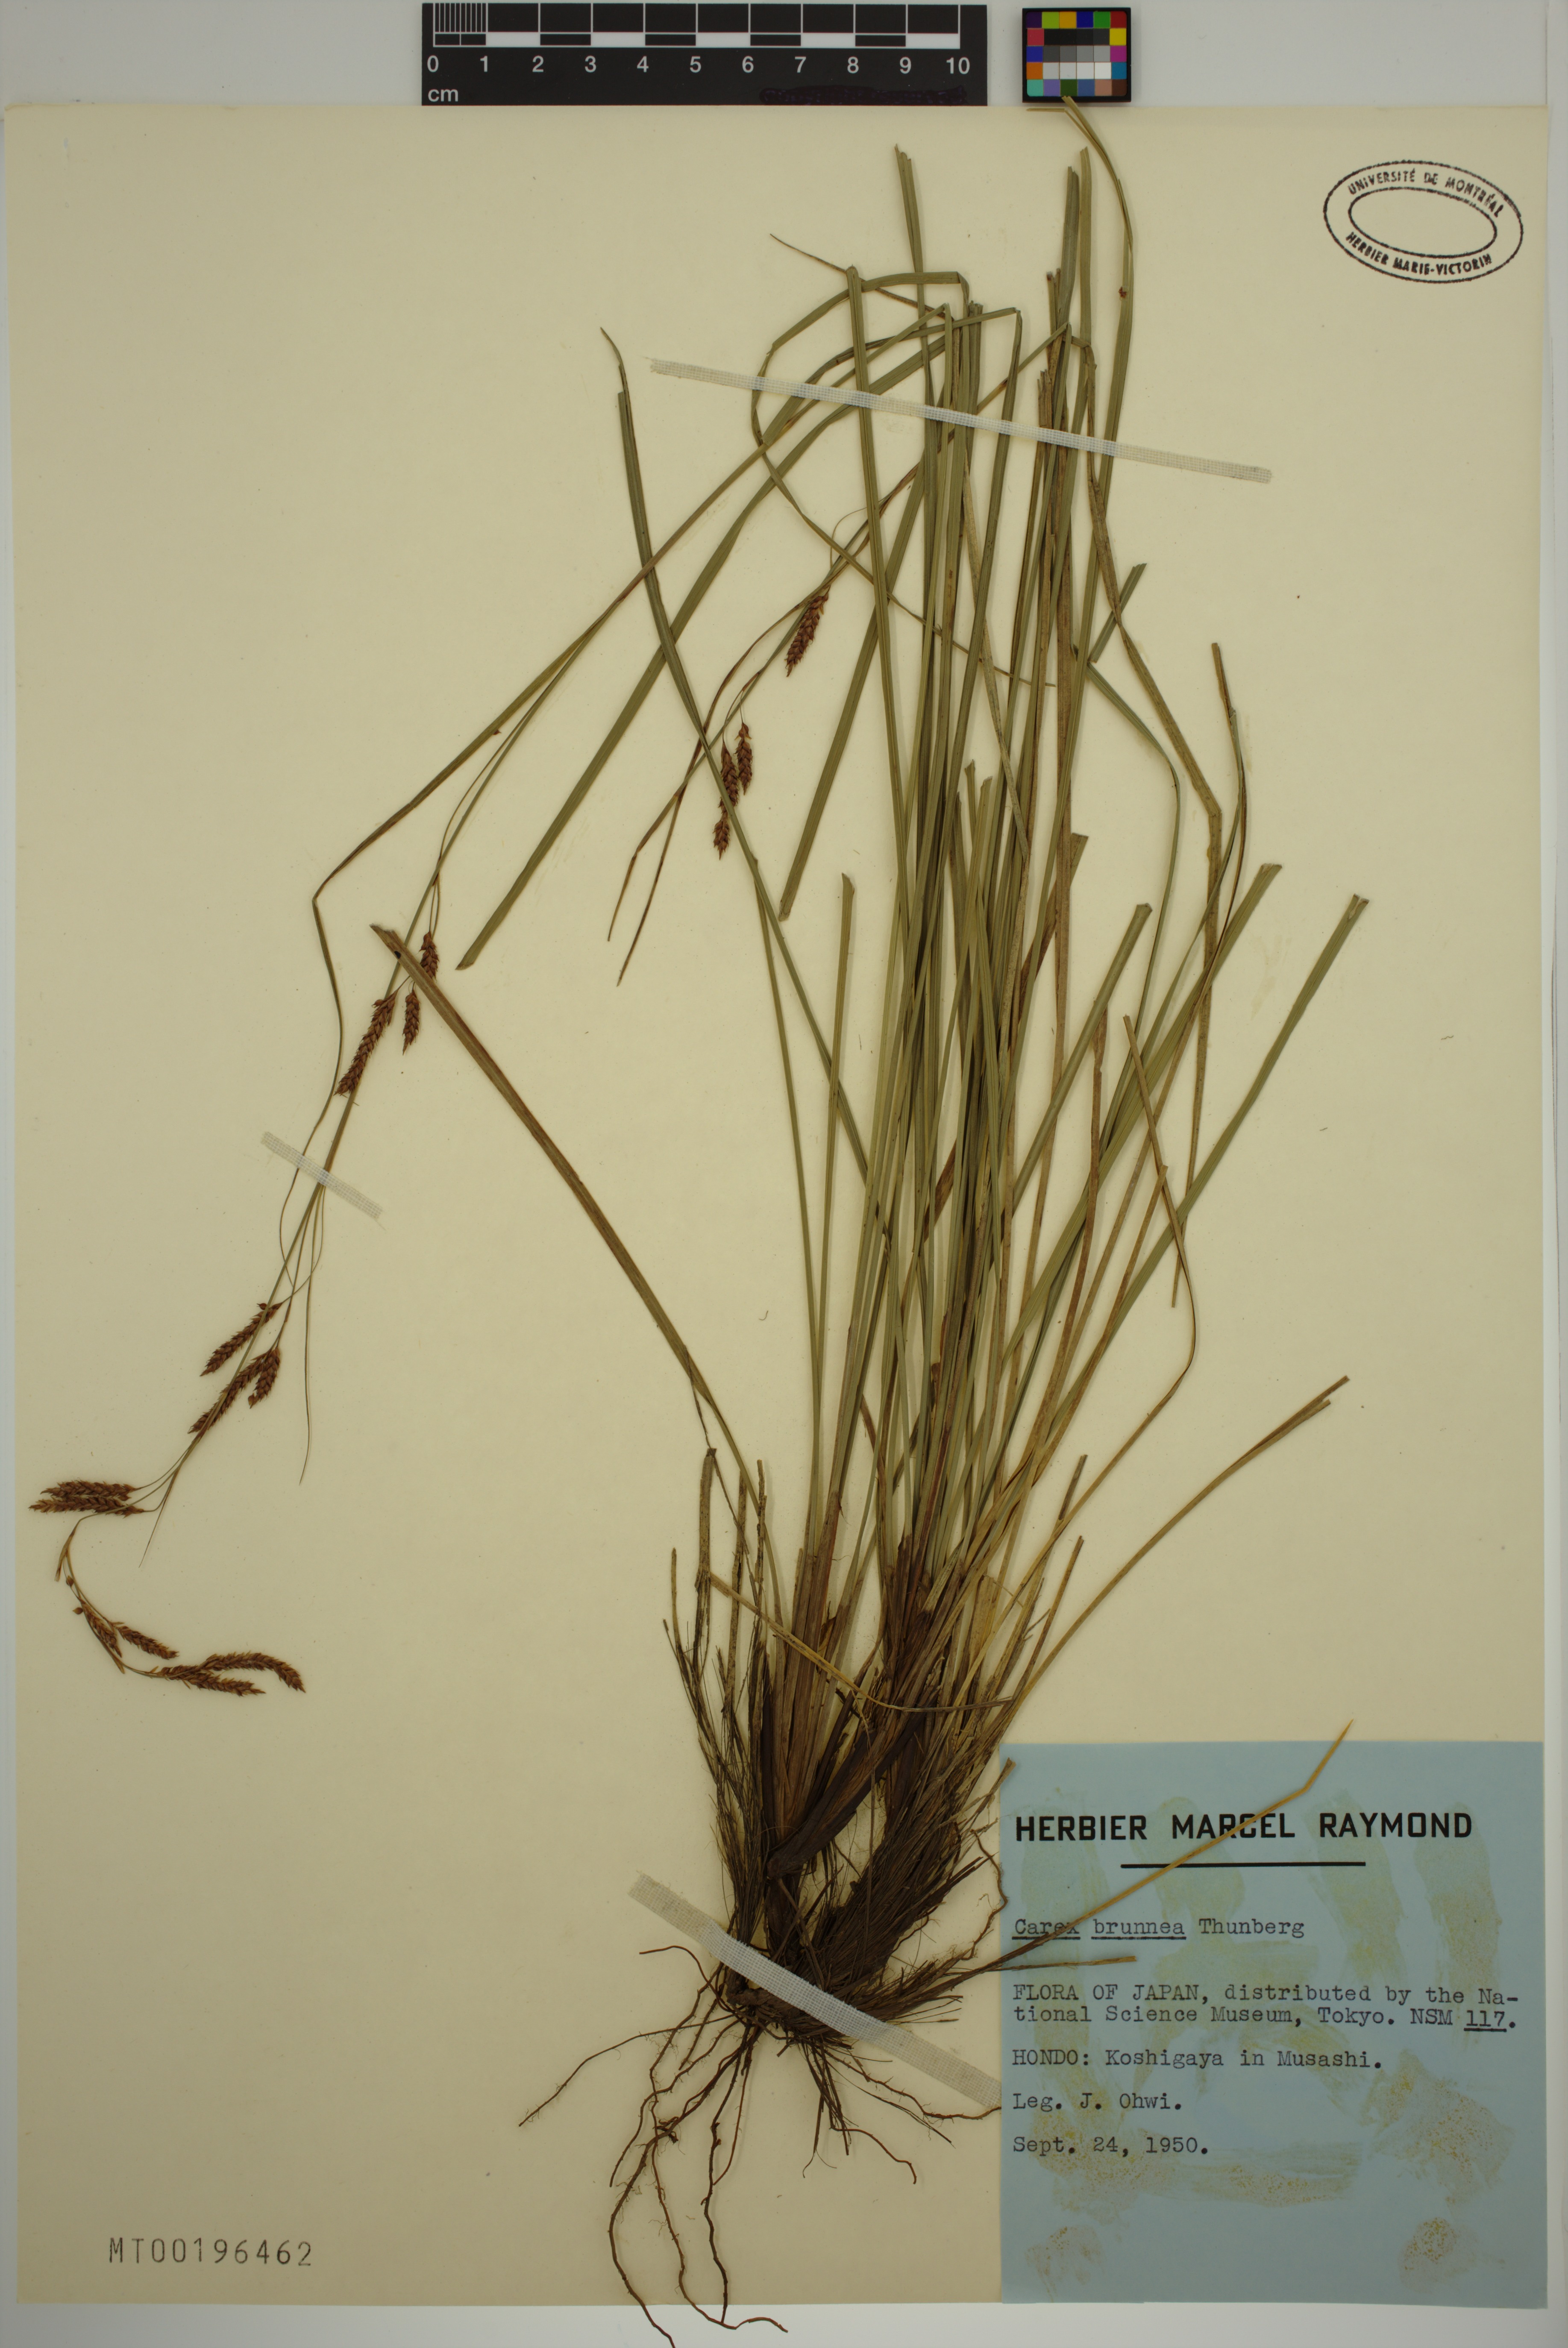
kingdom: Plantae
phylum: Tracheophyta
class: Liliopsida
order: Poales
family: Cyperaceae
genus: Carex
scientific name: Carex brunnea
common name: Greater brown sedge
